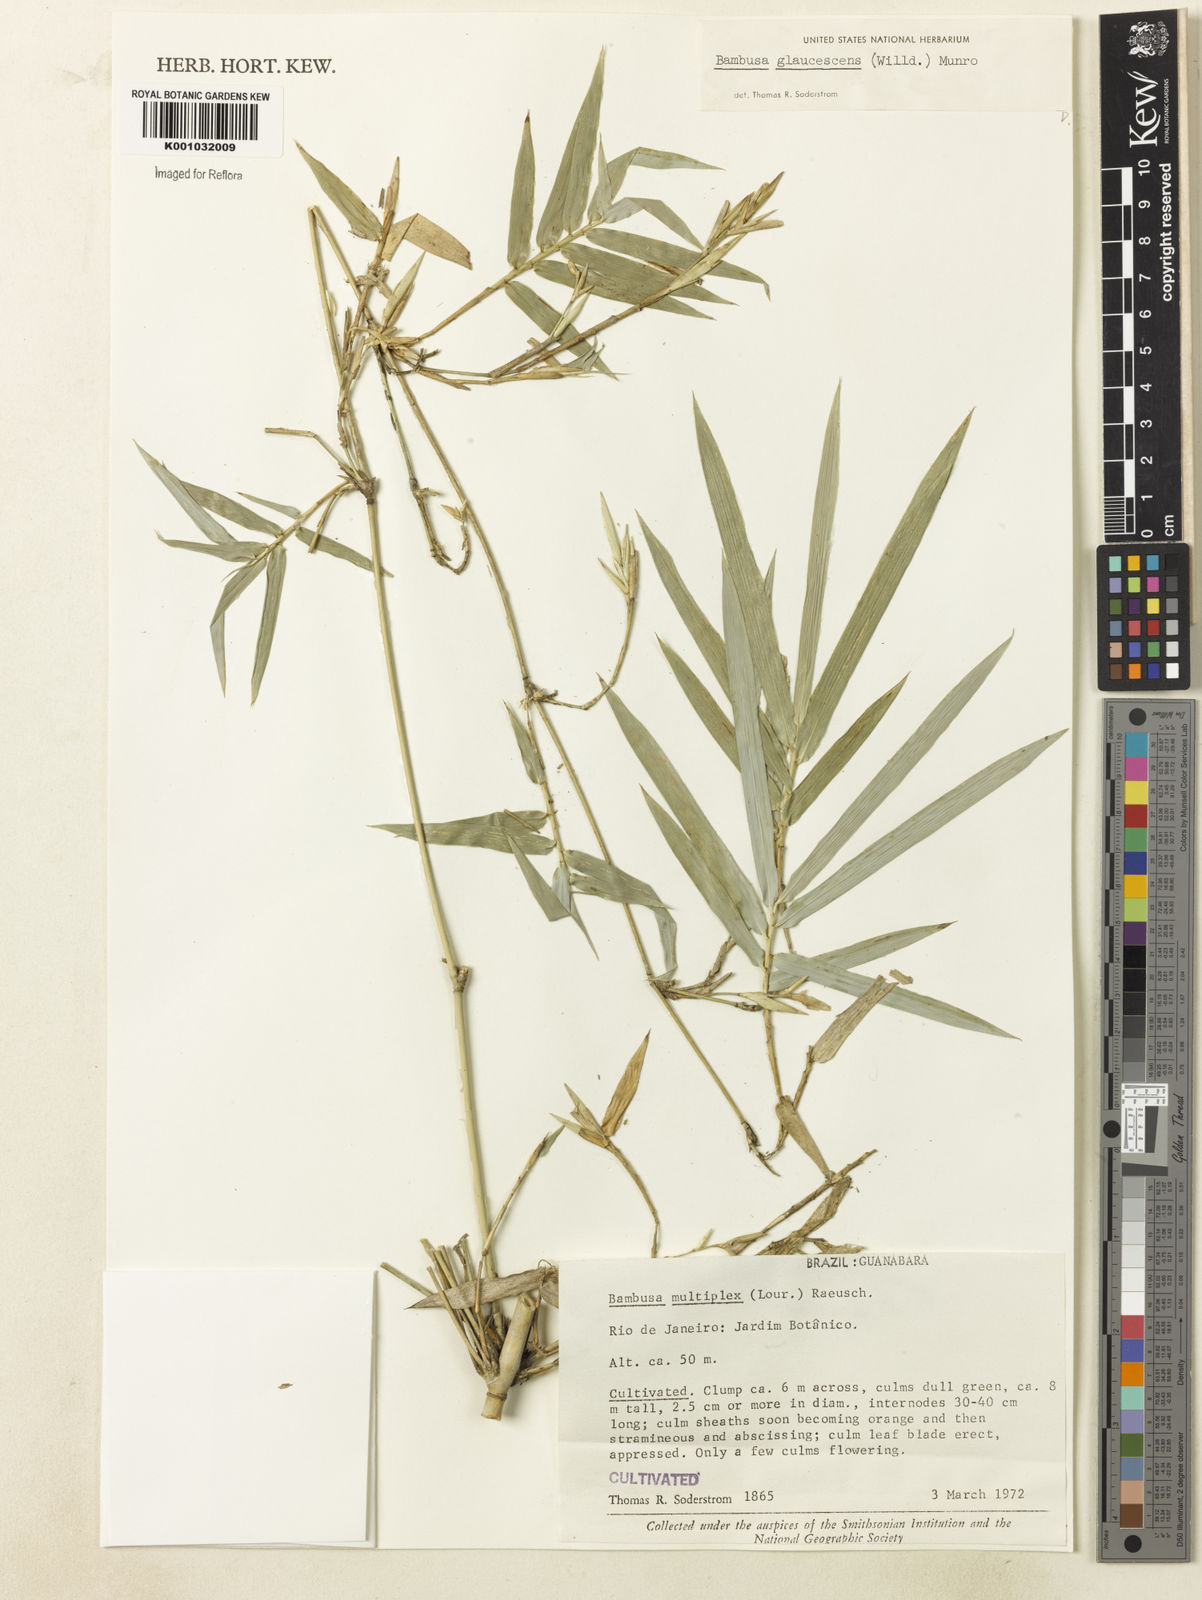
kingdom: Plantae
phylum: Tracheophyta
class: Liliopsida
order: Poales
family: Poaceae
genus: Bambusa
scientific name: Bambusa multiplex
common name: Hedge bamboo
